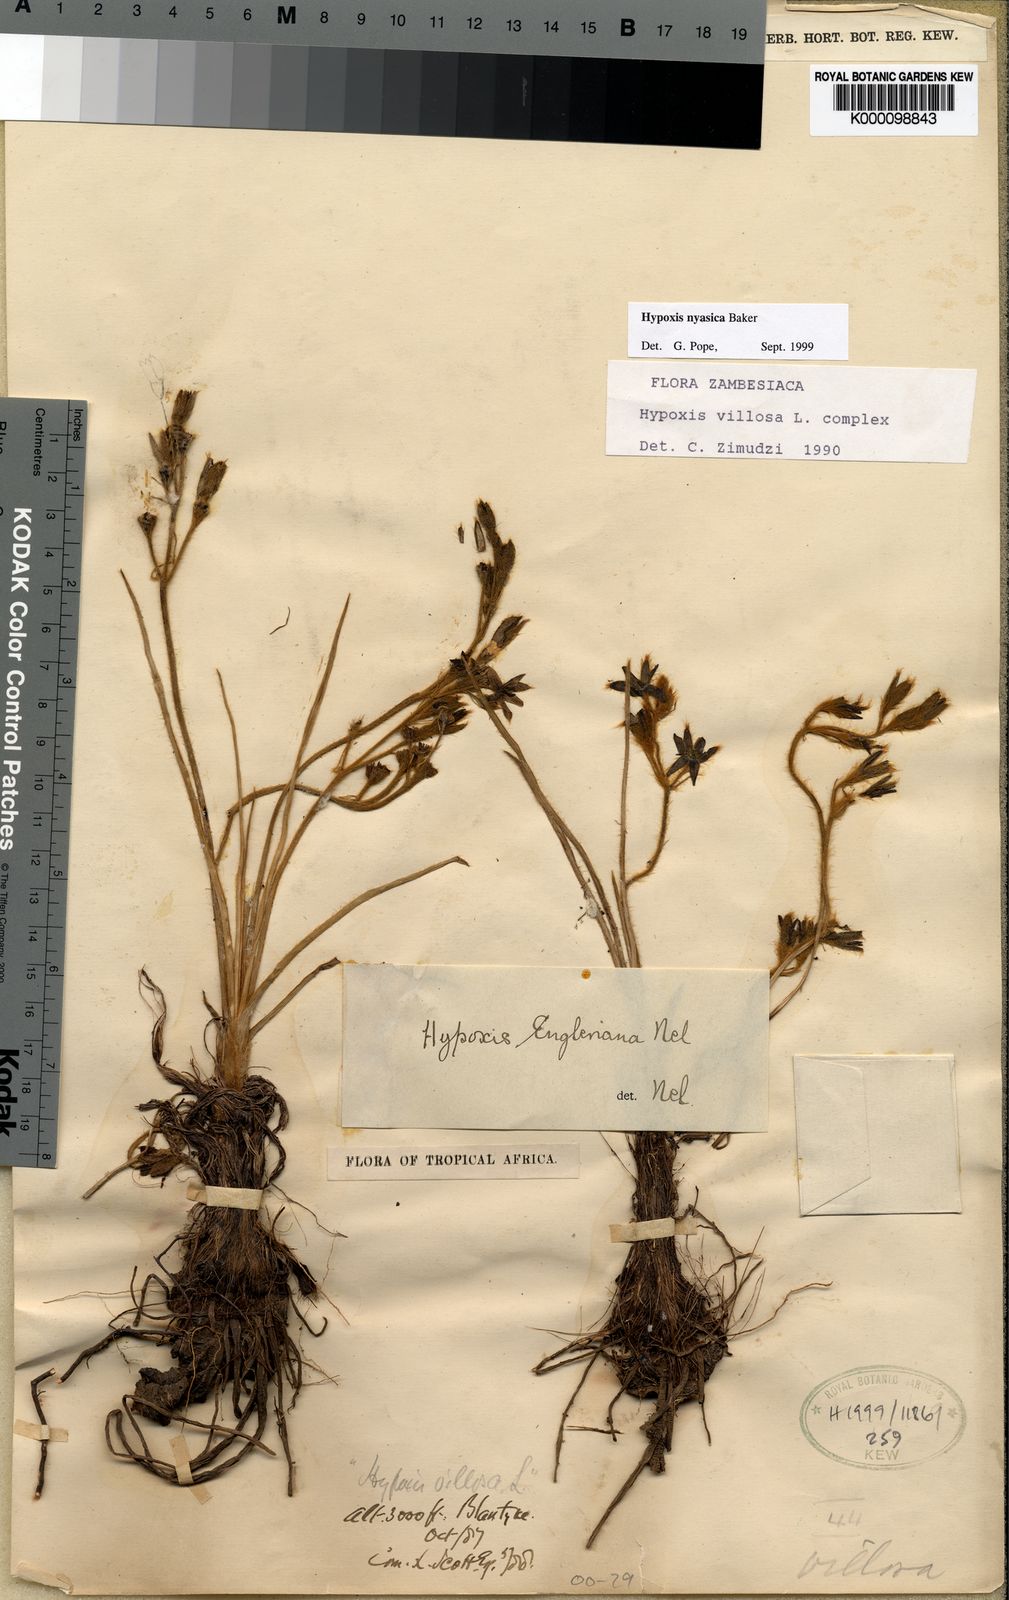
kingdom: Plantae
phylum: Tracheophyta
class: Liliopsida
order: Asparagales
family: Hypoxidaceae
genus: Hypoxis
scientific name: Hypoxis nyasica
